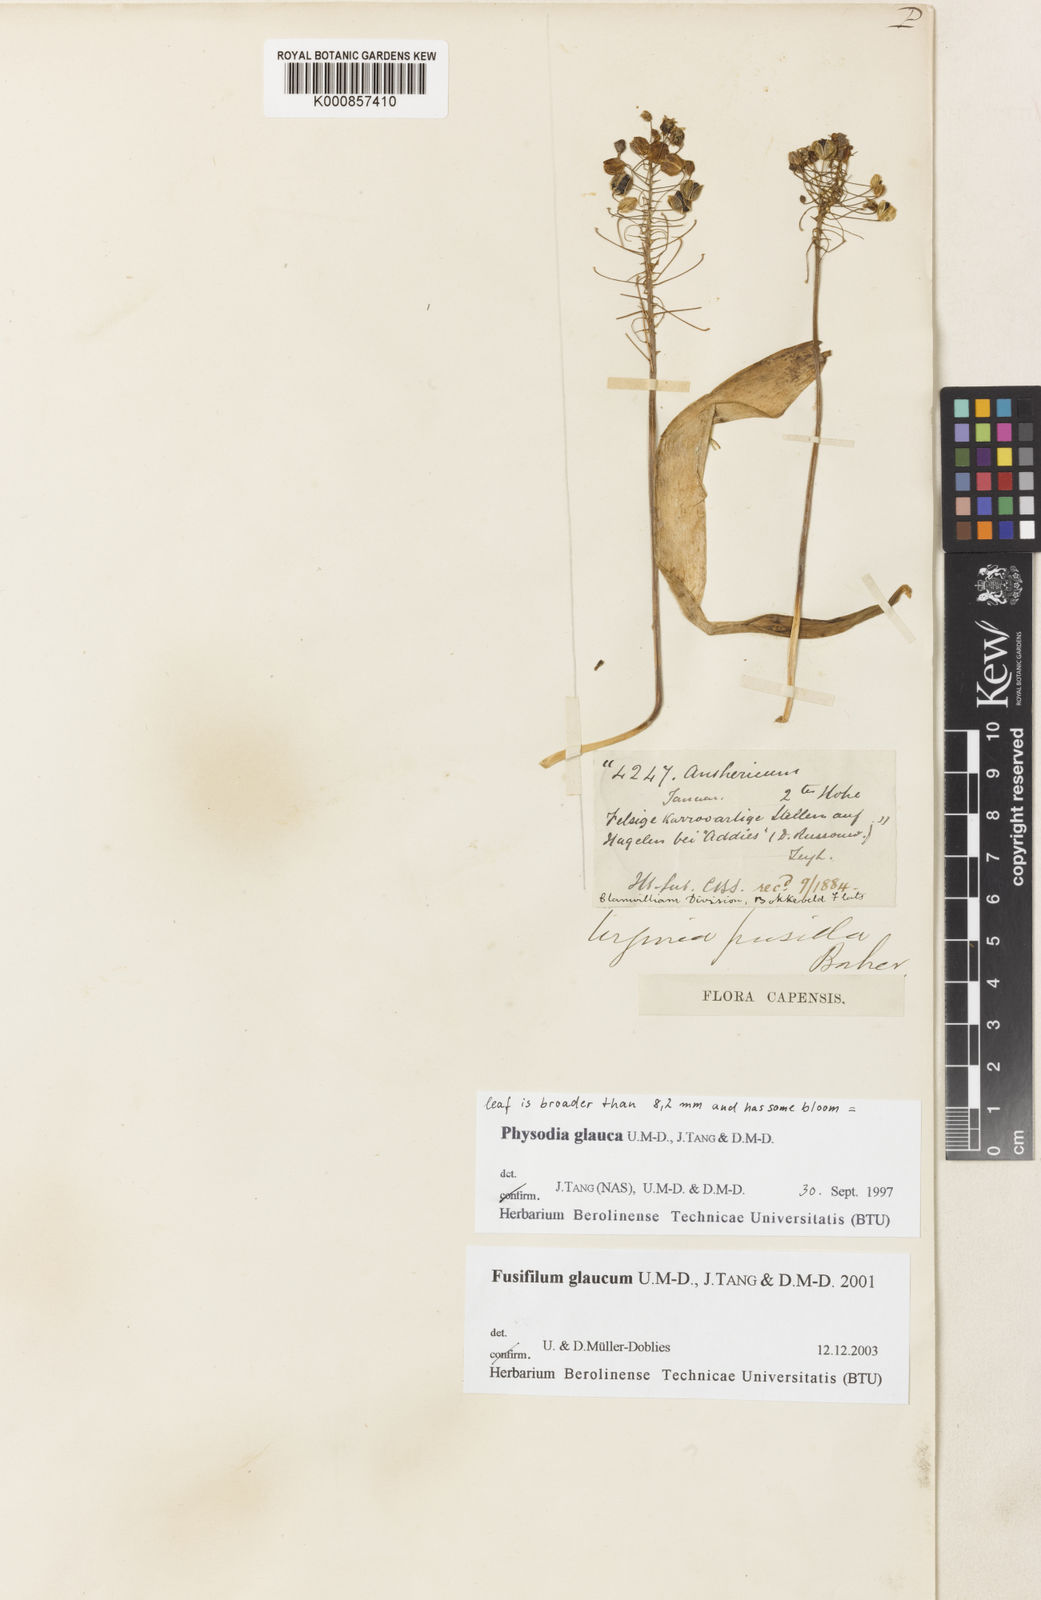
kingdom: Plantae
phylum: Tracheophyta
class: Liliopsida
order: Asparagales
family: Asparagaceae
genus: Fusifilum
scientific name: Fusifilum physodes
